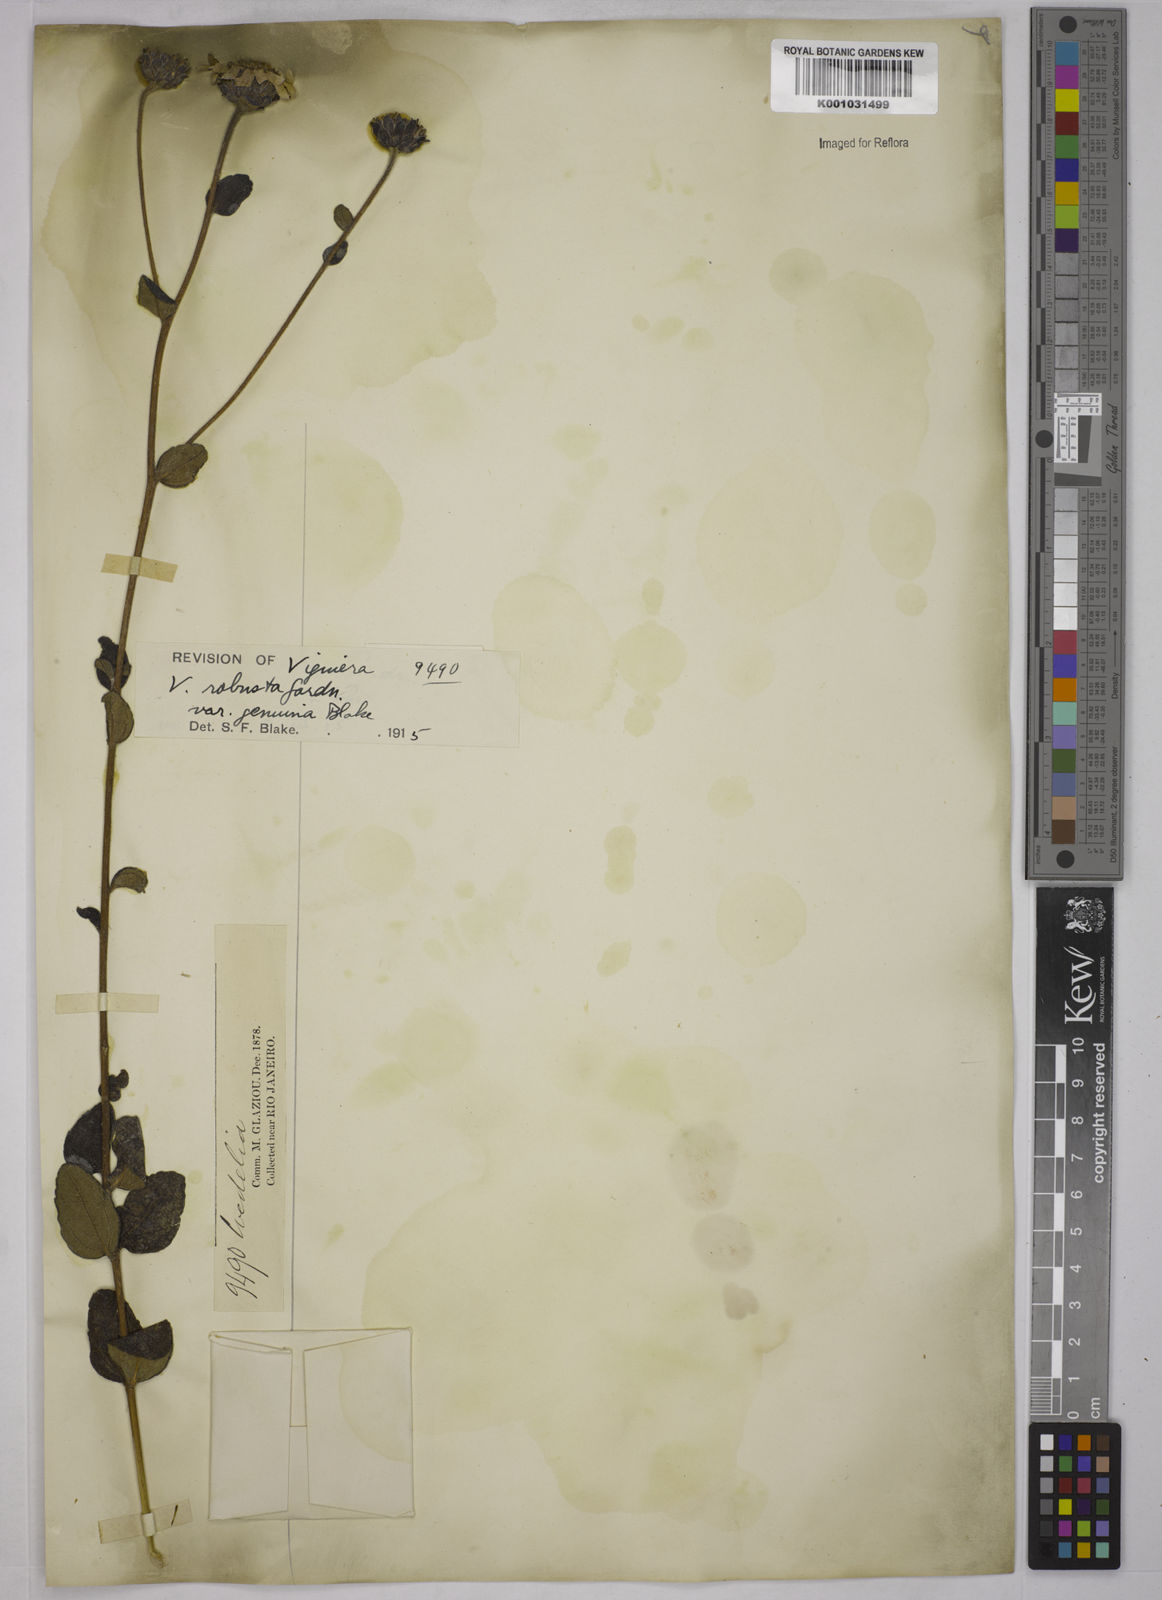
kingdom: Plantae
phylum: Tracheophyta
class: Magnoliopsida
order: Asterales
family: Asteraceae
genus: Aldama
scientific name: Aldama robusta
